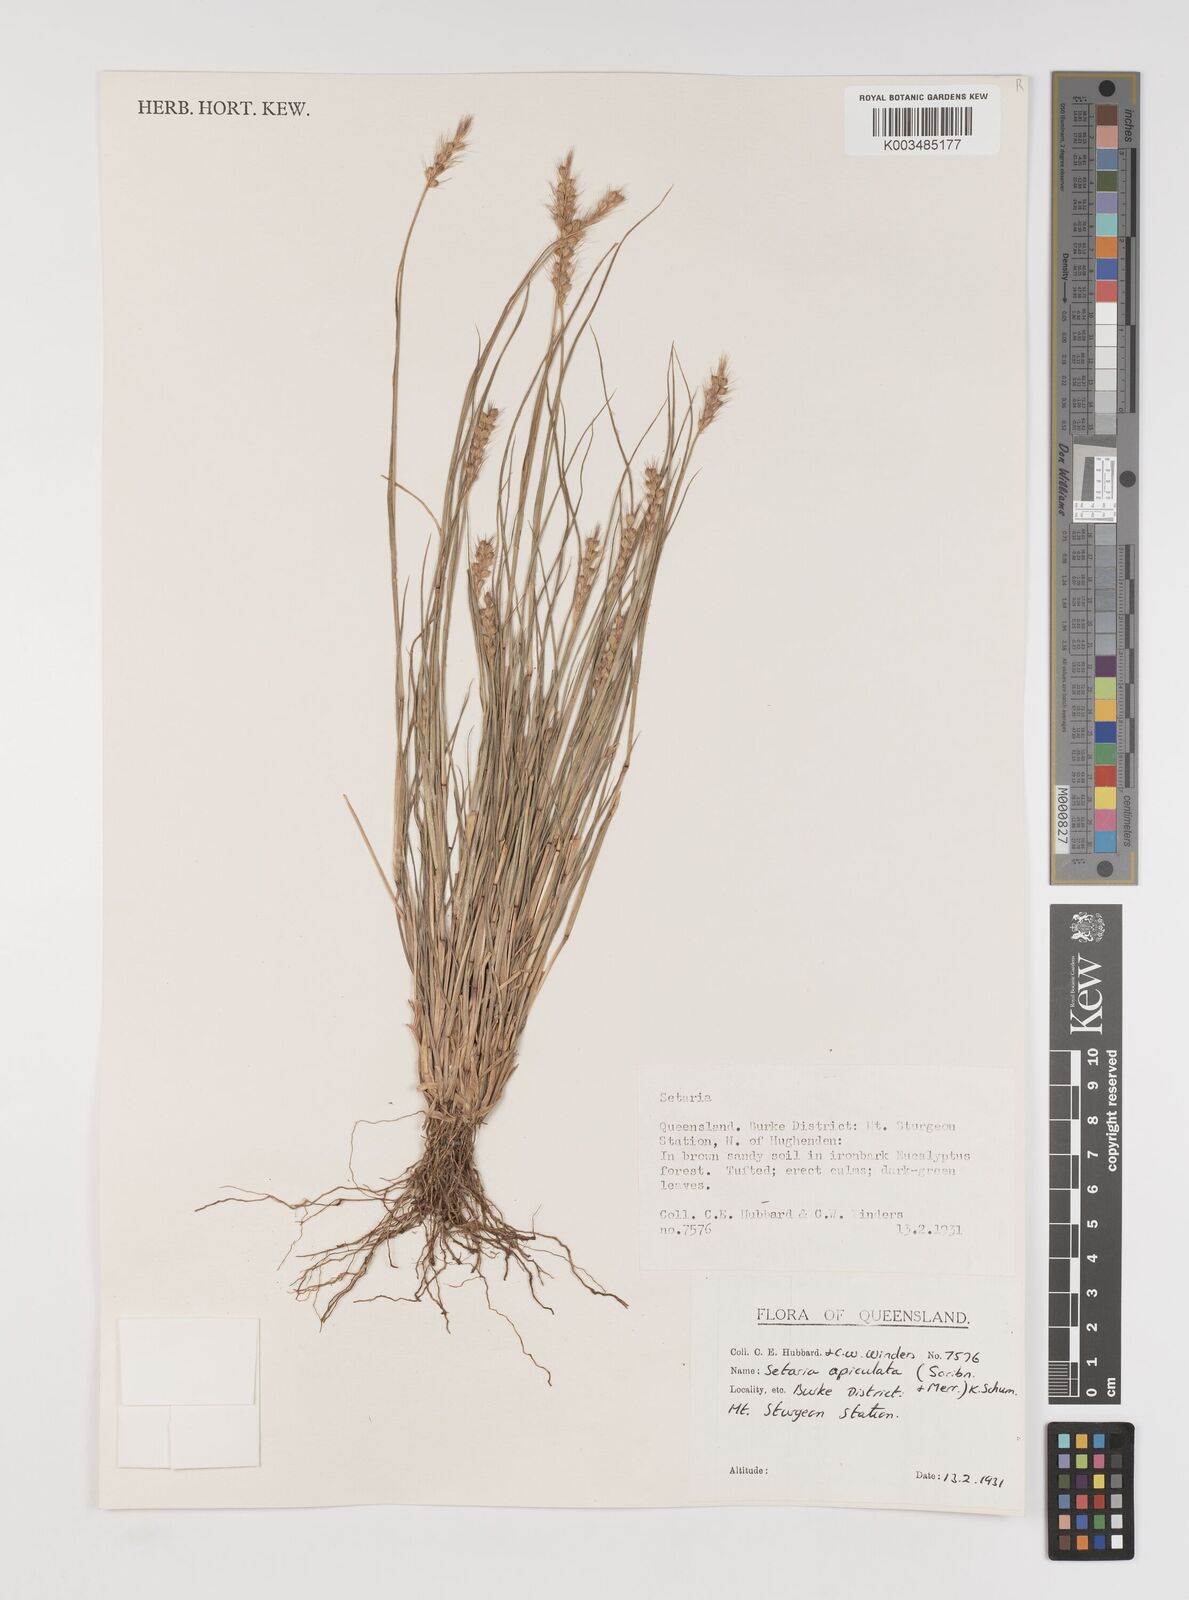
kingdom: Plantae
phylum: Tracheophyta
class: Liliopsida
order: Poales
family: Poaceae
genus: Setaria
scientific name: Setaria apiculata
